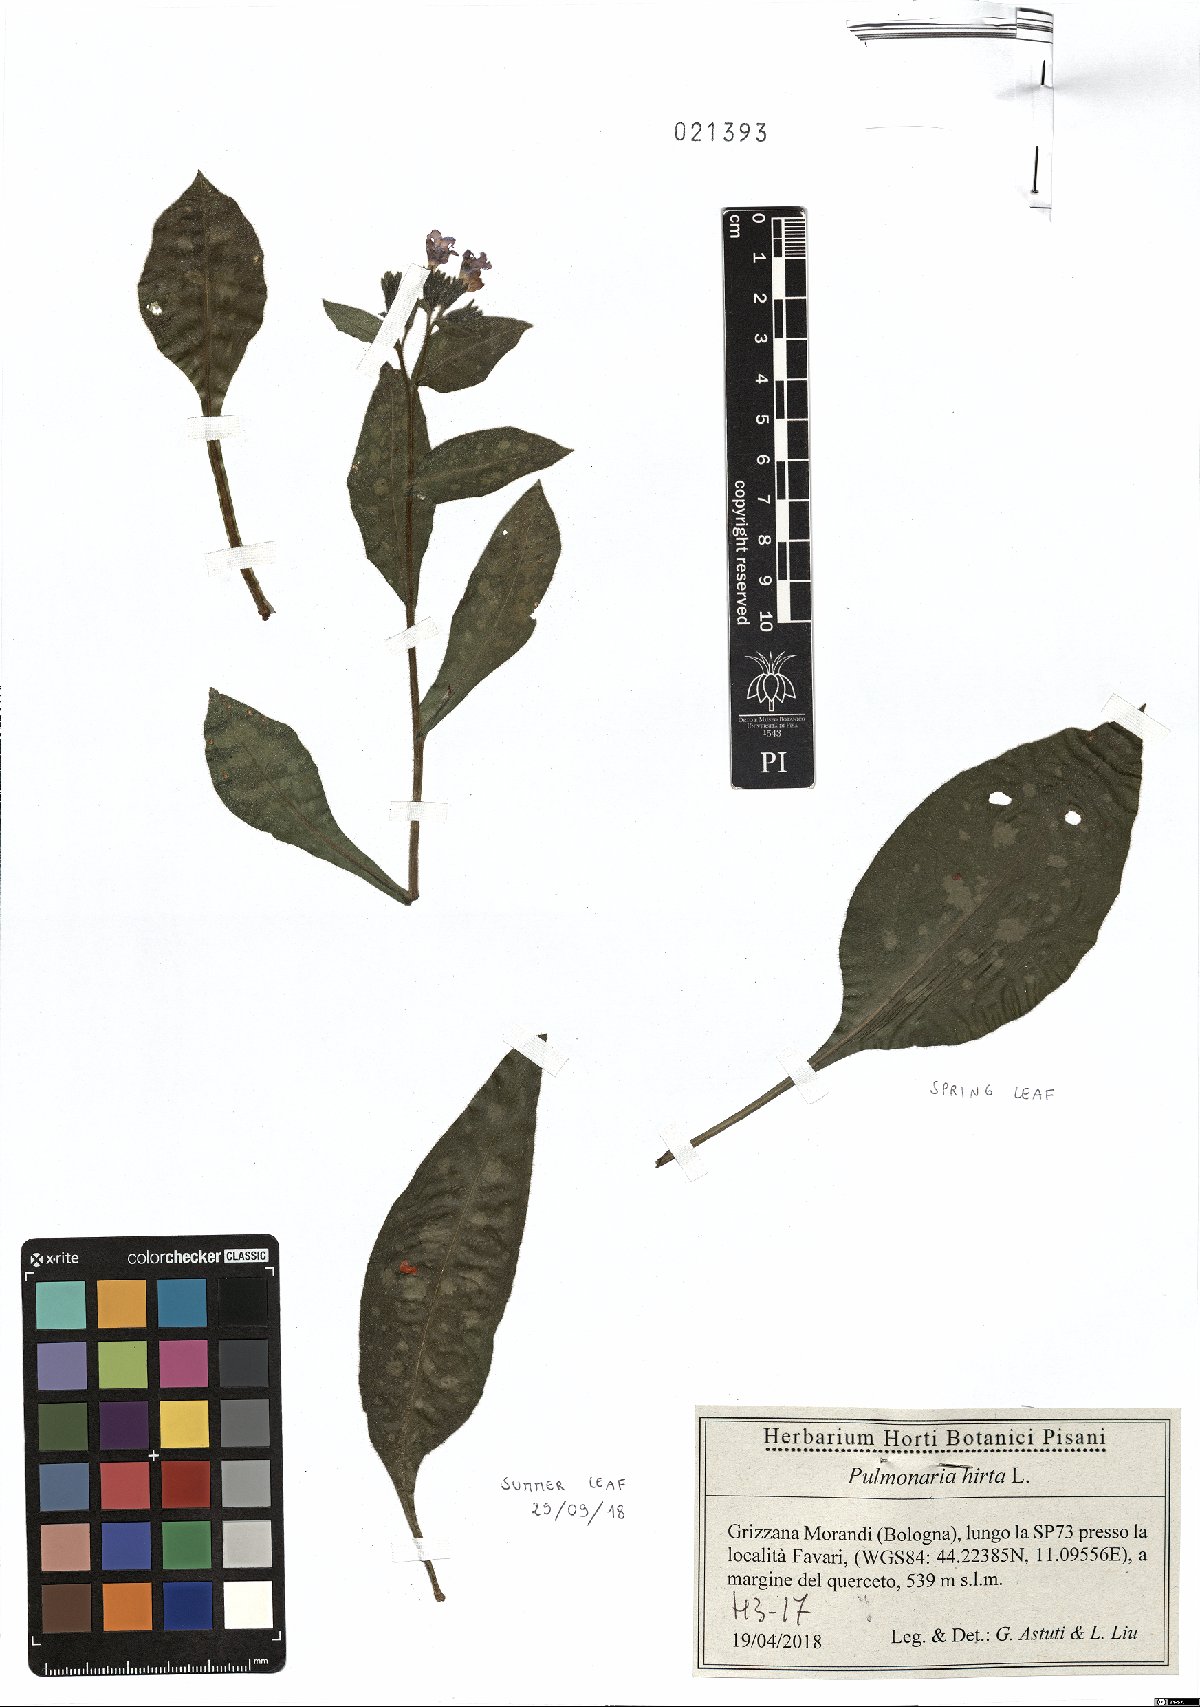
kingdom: Plantae
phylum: Tracheophyta
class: Magnoliopsida
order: Boraginales
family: Boraginaceae
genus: Pulmonaria
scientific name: Pulmonaria hirta
